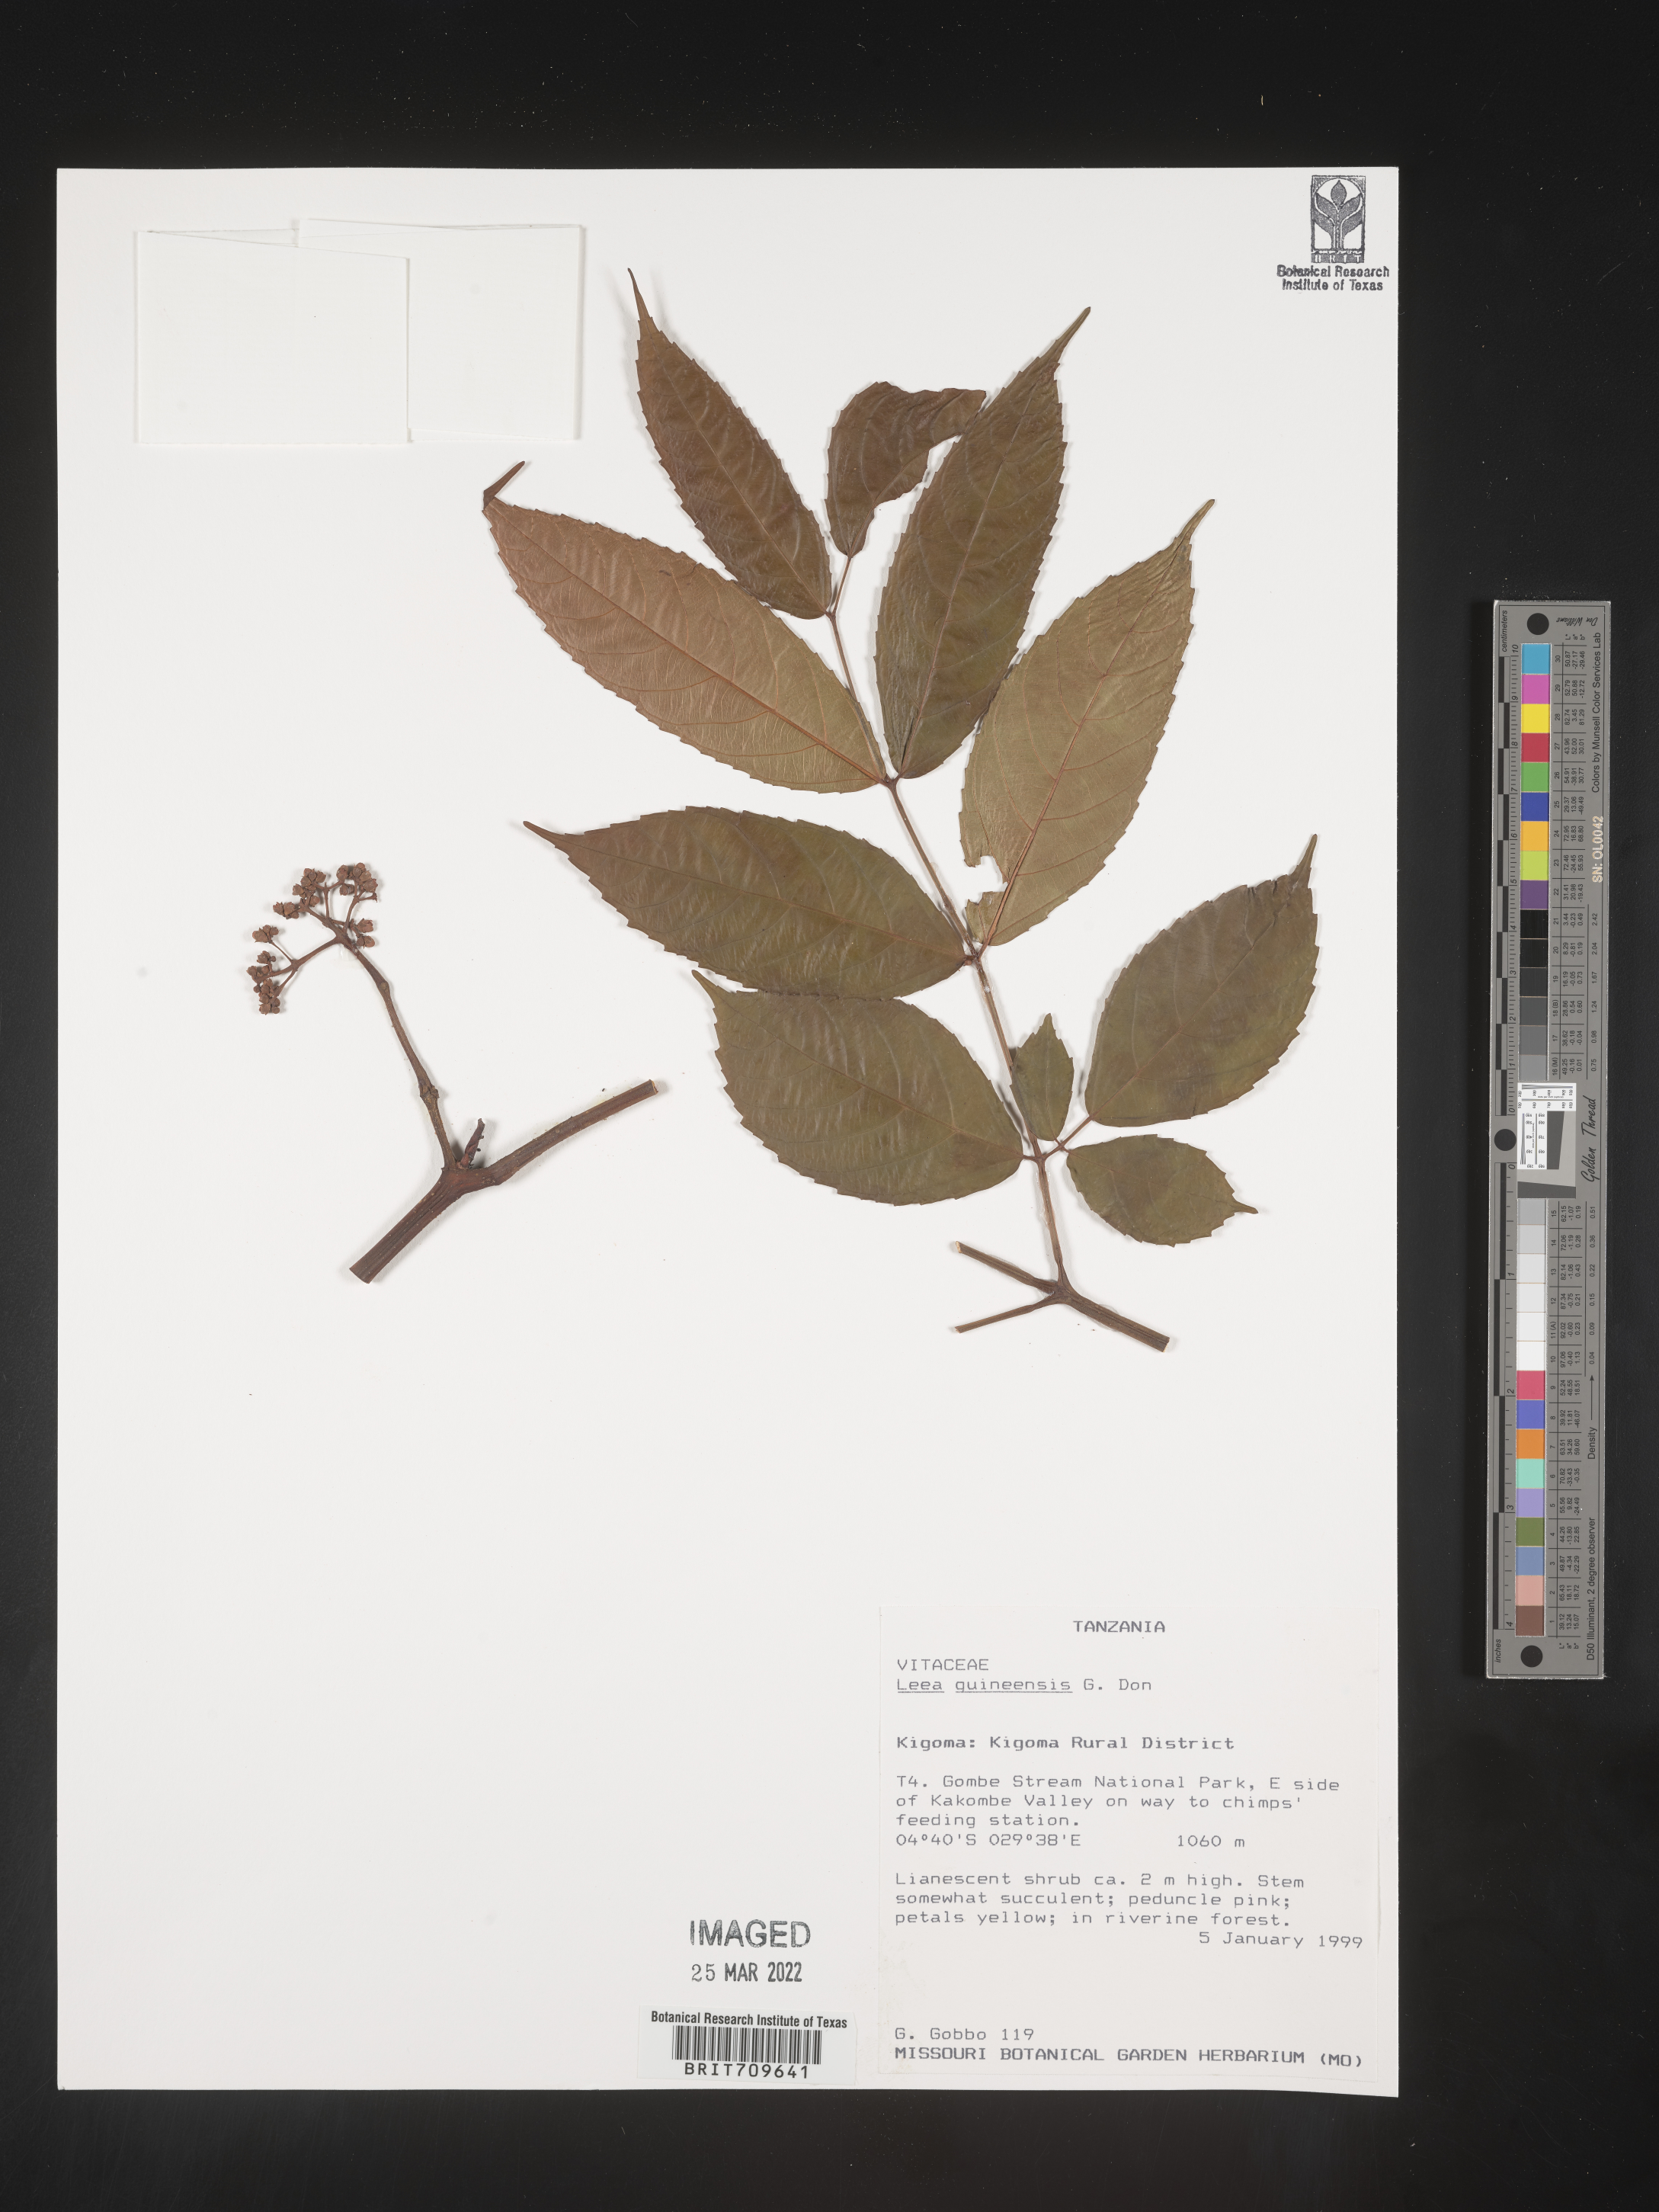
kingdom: Plantae
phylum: Tracheophyta
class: Magnoliopsida
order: Vitales
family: Vitaceae
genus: Leea
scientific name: Leea
